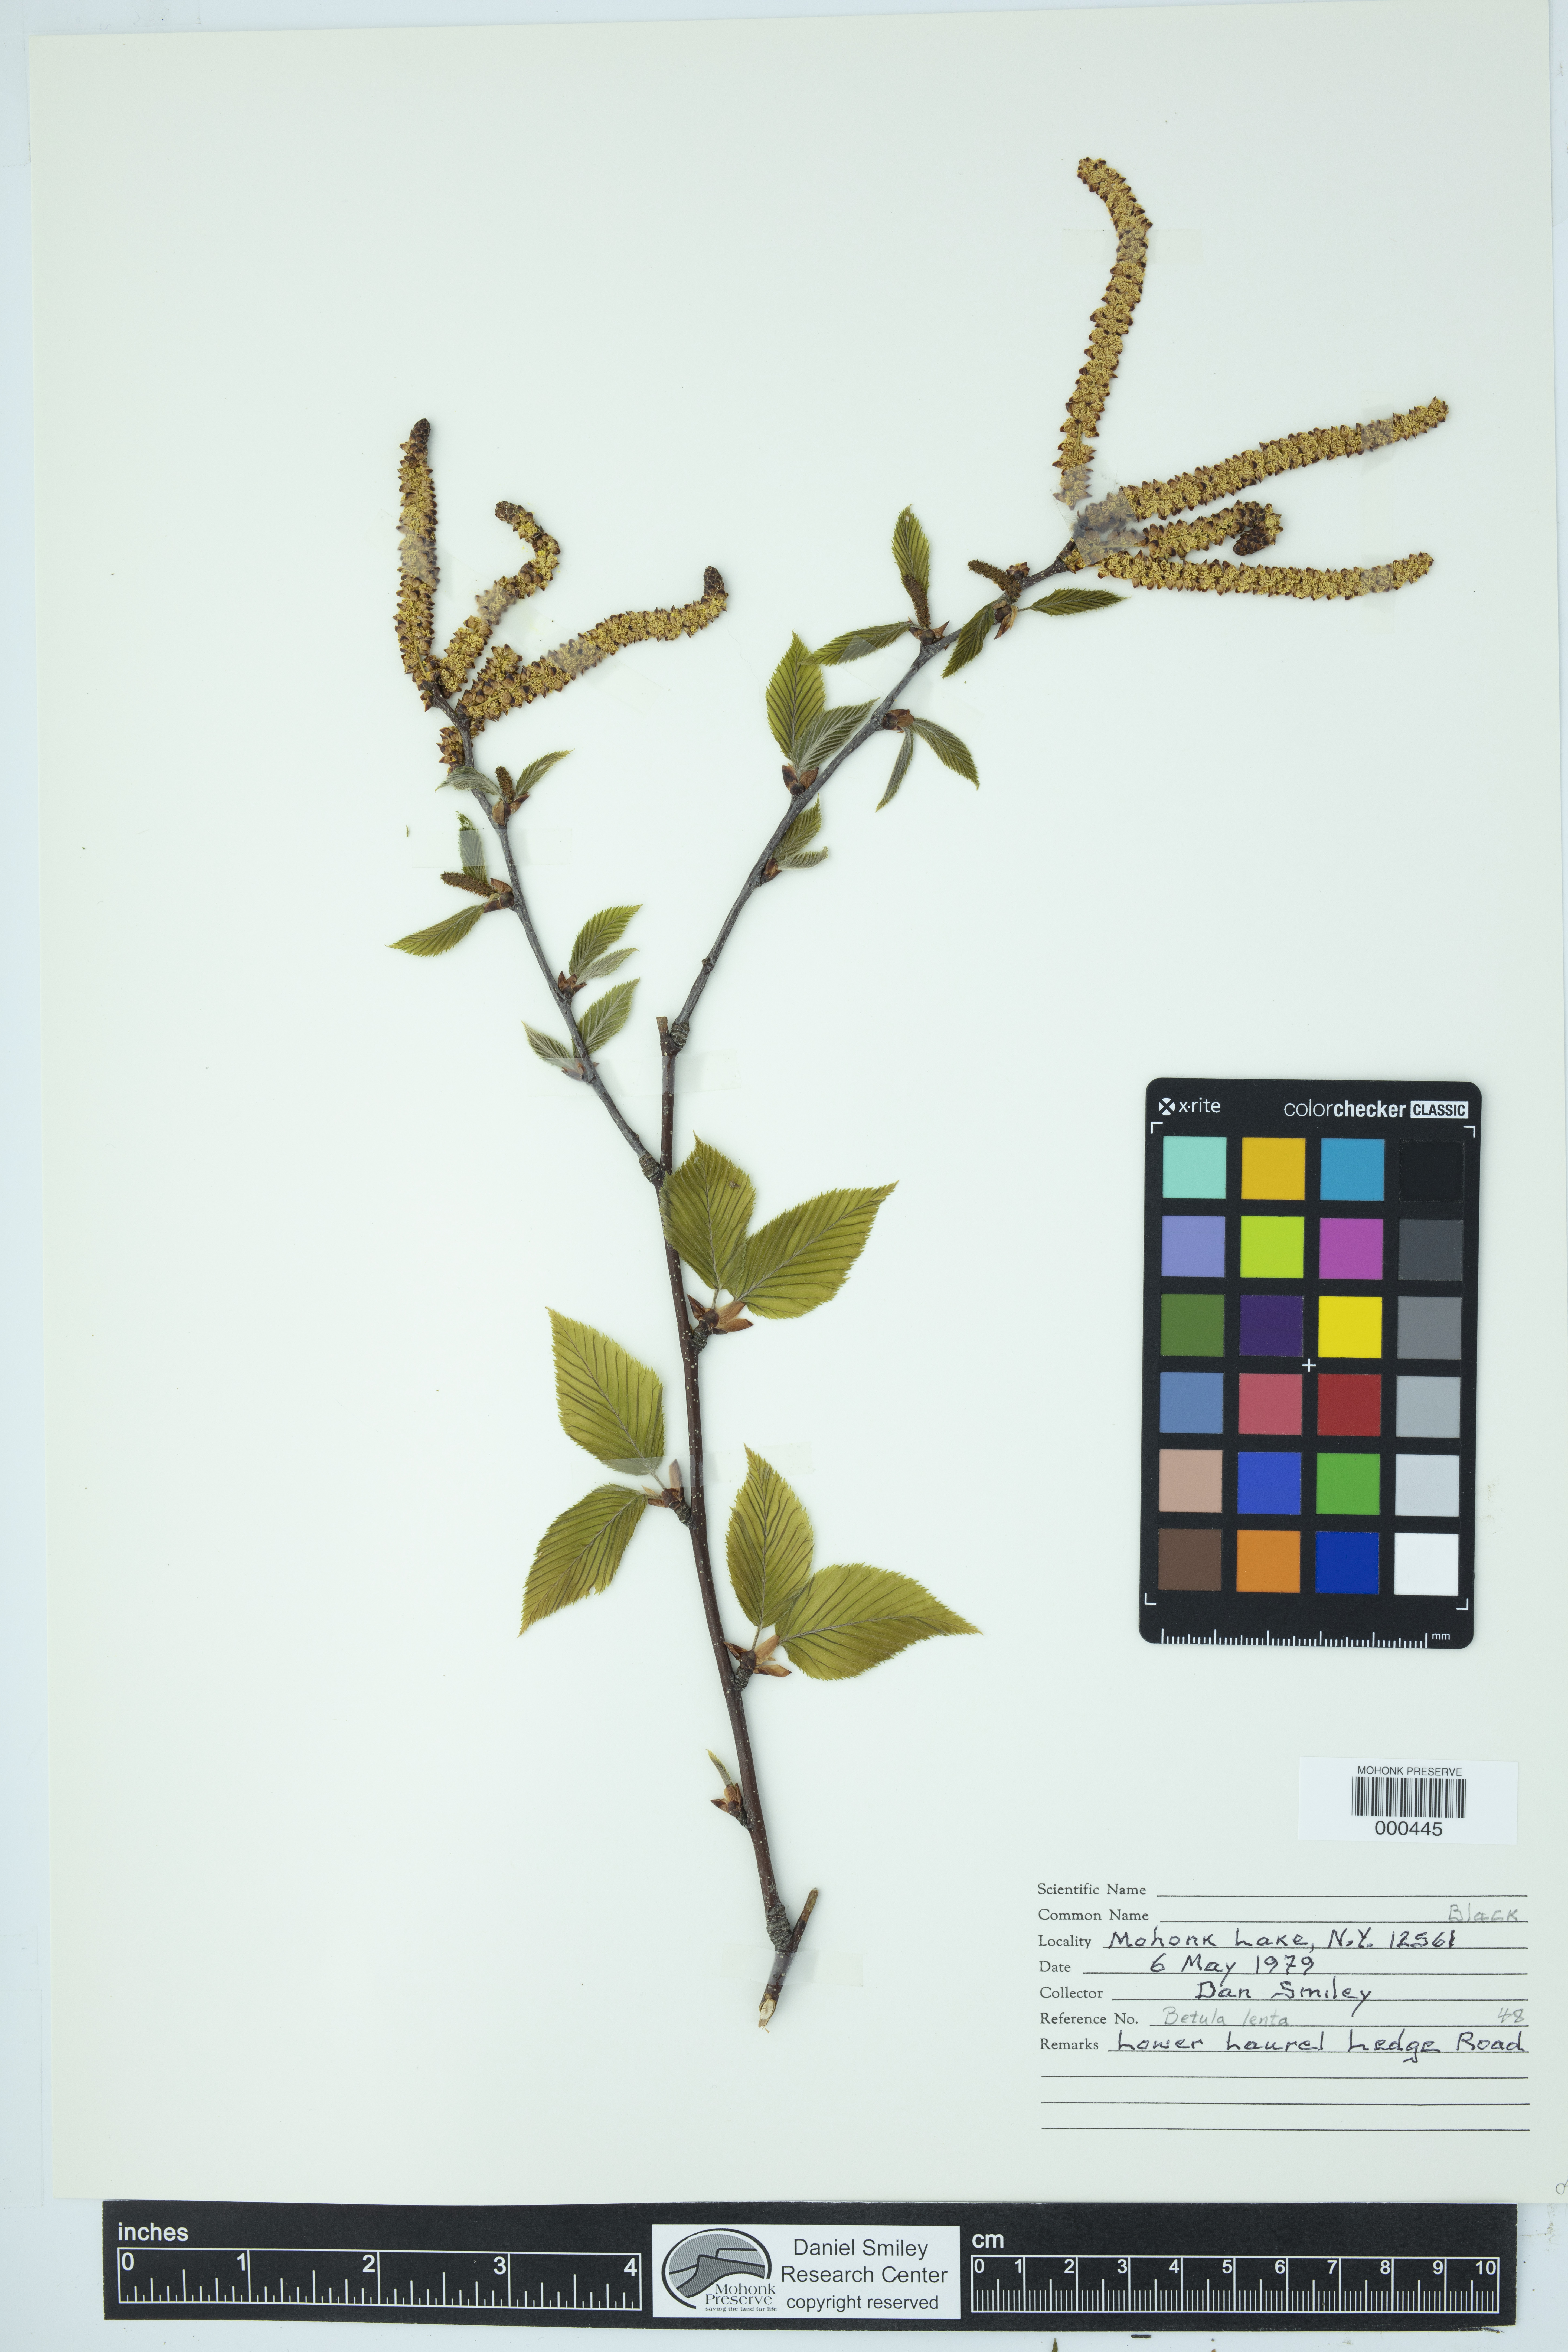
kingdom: Plantae
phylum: Tracheophyta
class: Magnoliopsida
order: Fagales
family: Betulaceae
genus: Betula
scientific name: Betula lenta
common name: Black birch
